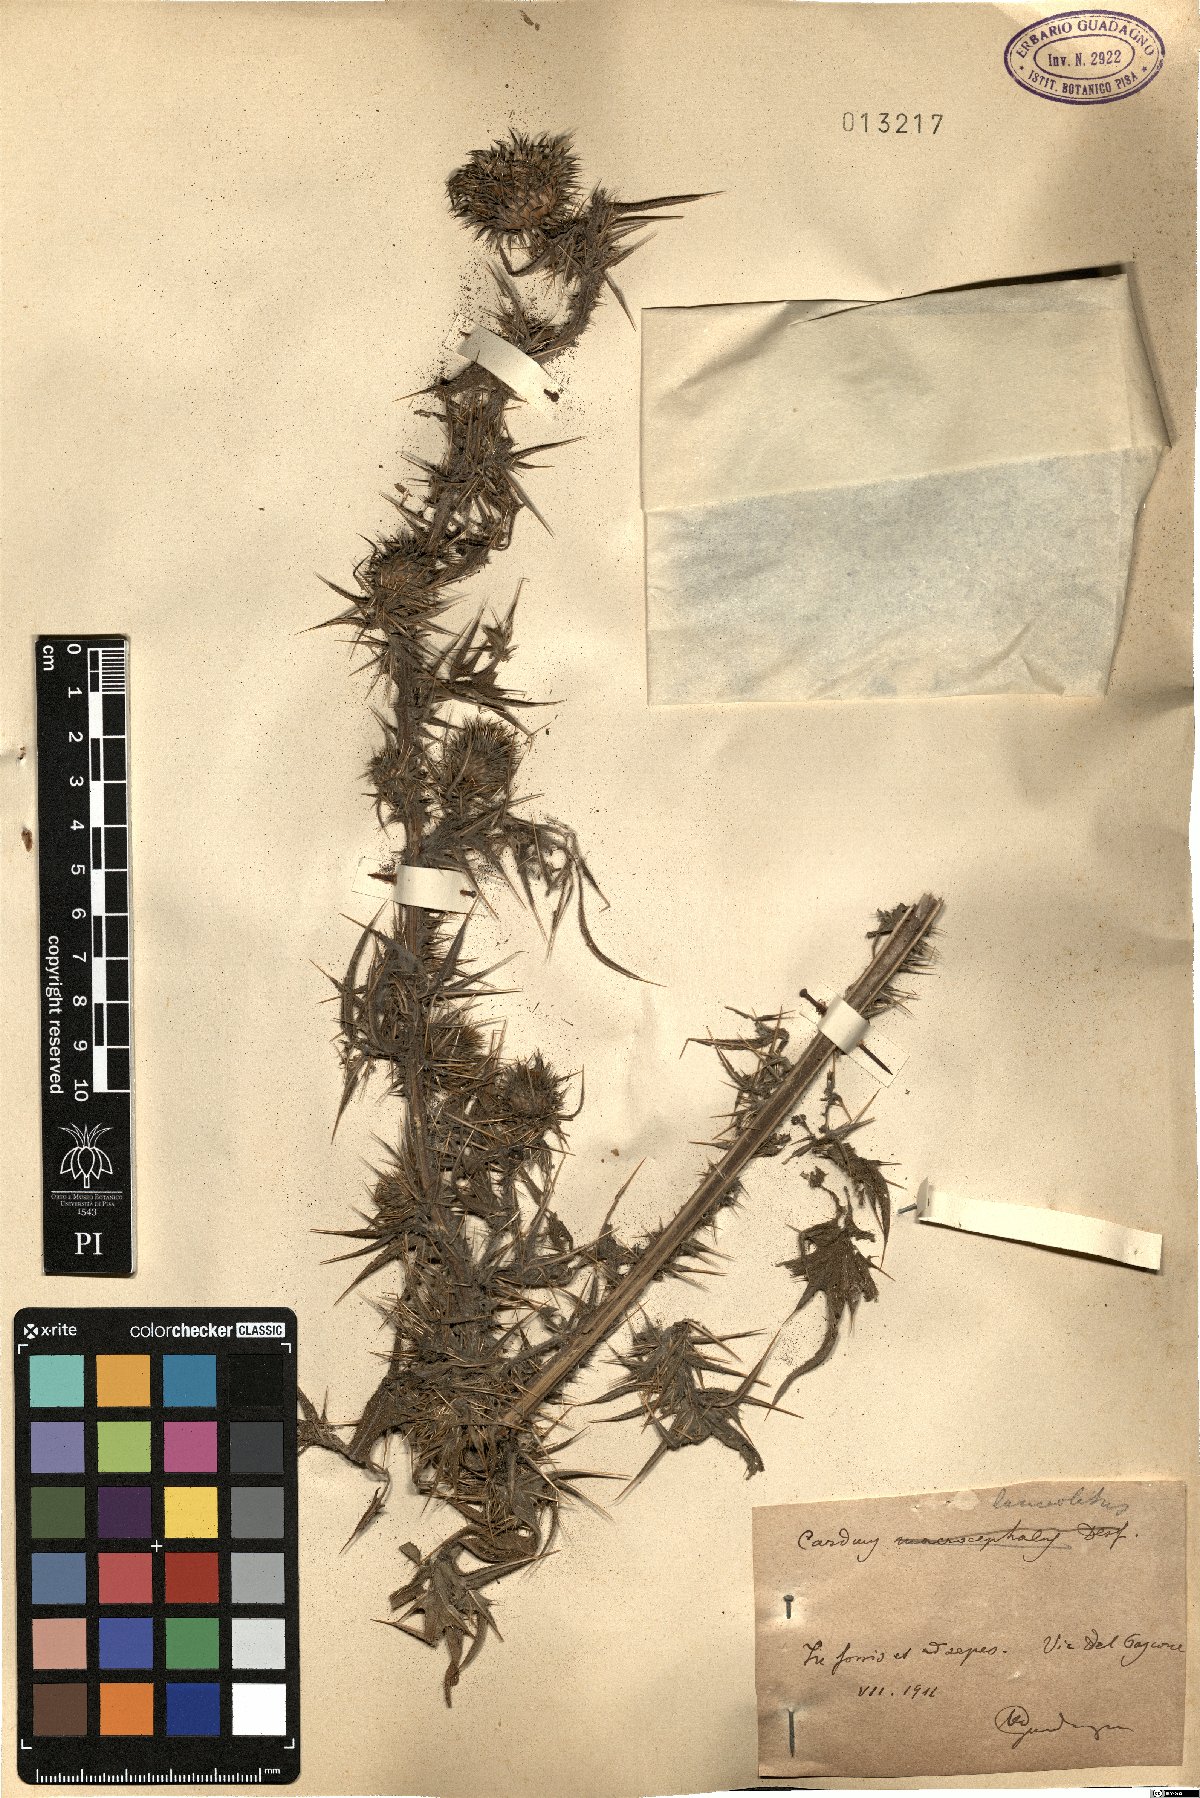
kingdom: Plantae
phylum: Tracheophyta
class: Magnoliopsida
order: Asterales
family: Asteraceae
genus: Cirsium
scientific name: Cirsium vulgare
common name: Bull thistle
